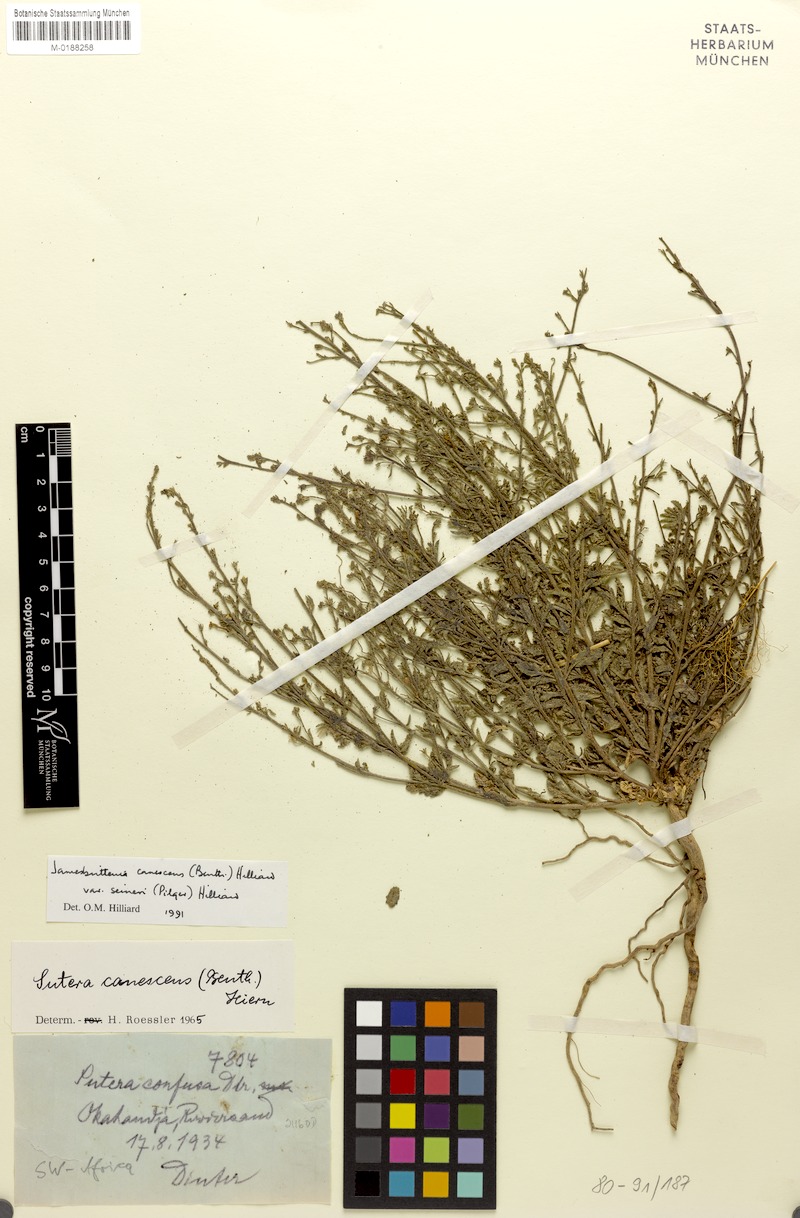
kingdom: Plantae
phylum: Tracheophyta
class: Magnoliopsida
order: Lamiales
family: Scrophulariaceae
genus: Jamesbrittenia
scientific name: Jamesbrittenia canescens
